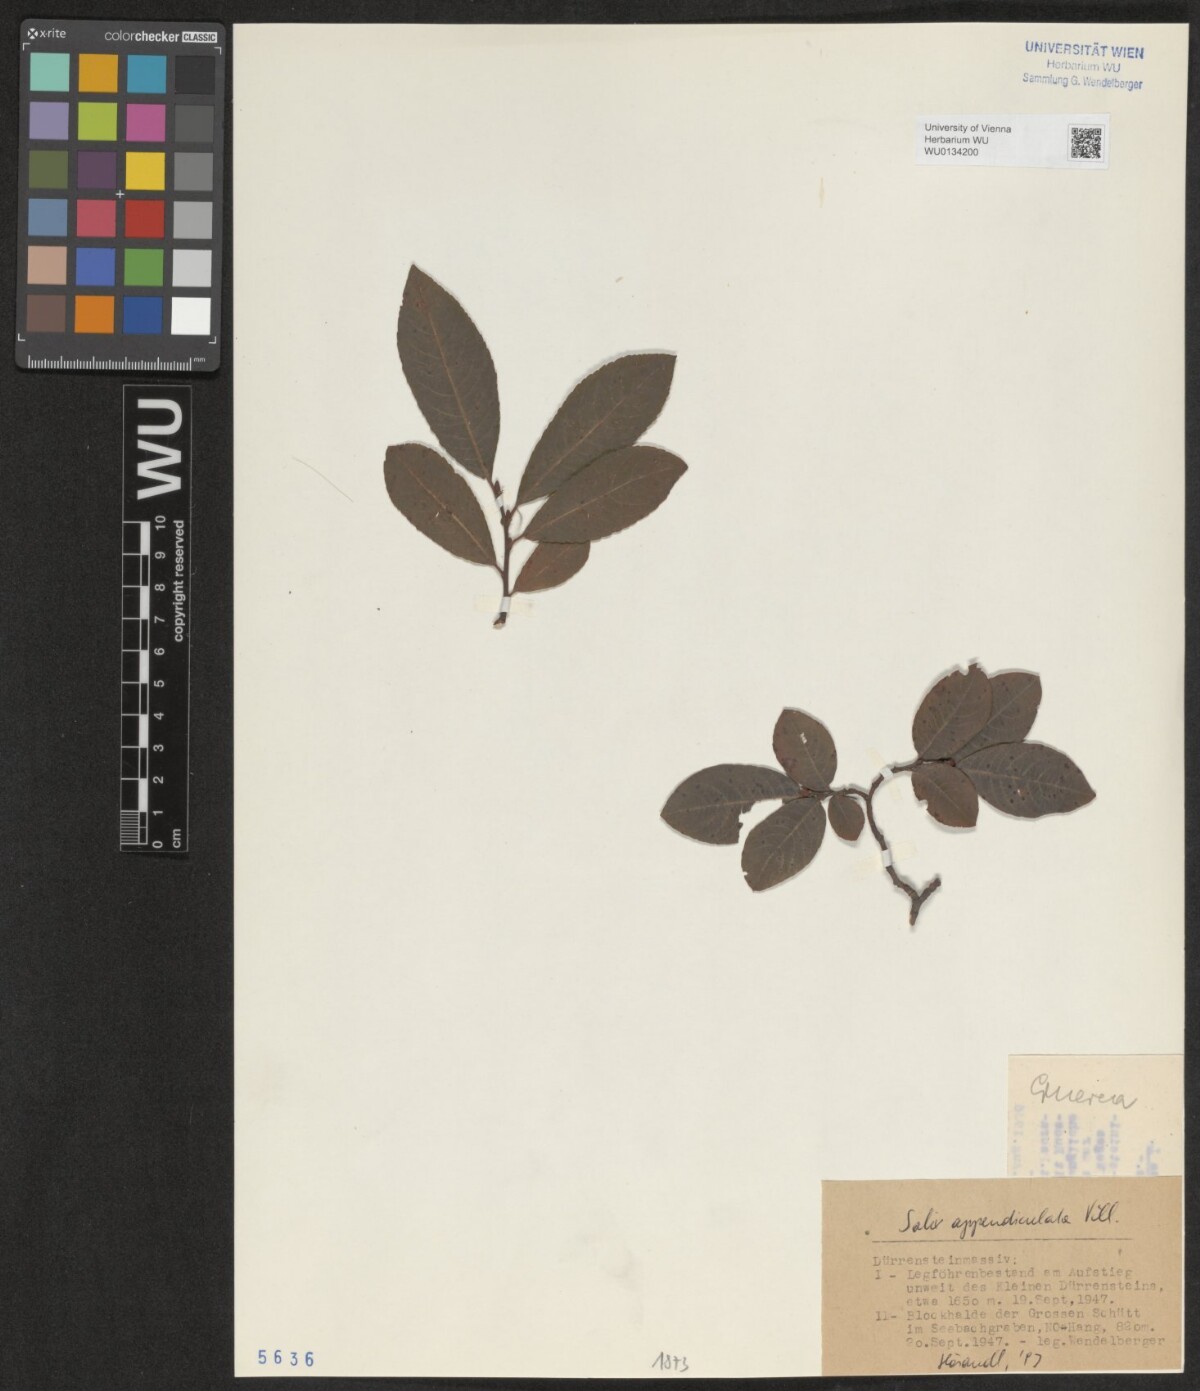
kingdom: Plantae
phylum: Tracheophyta
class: Magnoliopsida
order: Malpighiales
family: Salicaceae
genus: Salix
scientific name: Salix appendiculata
